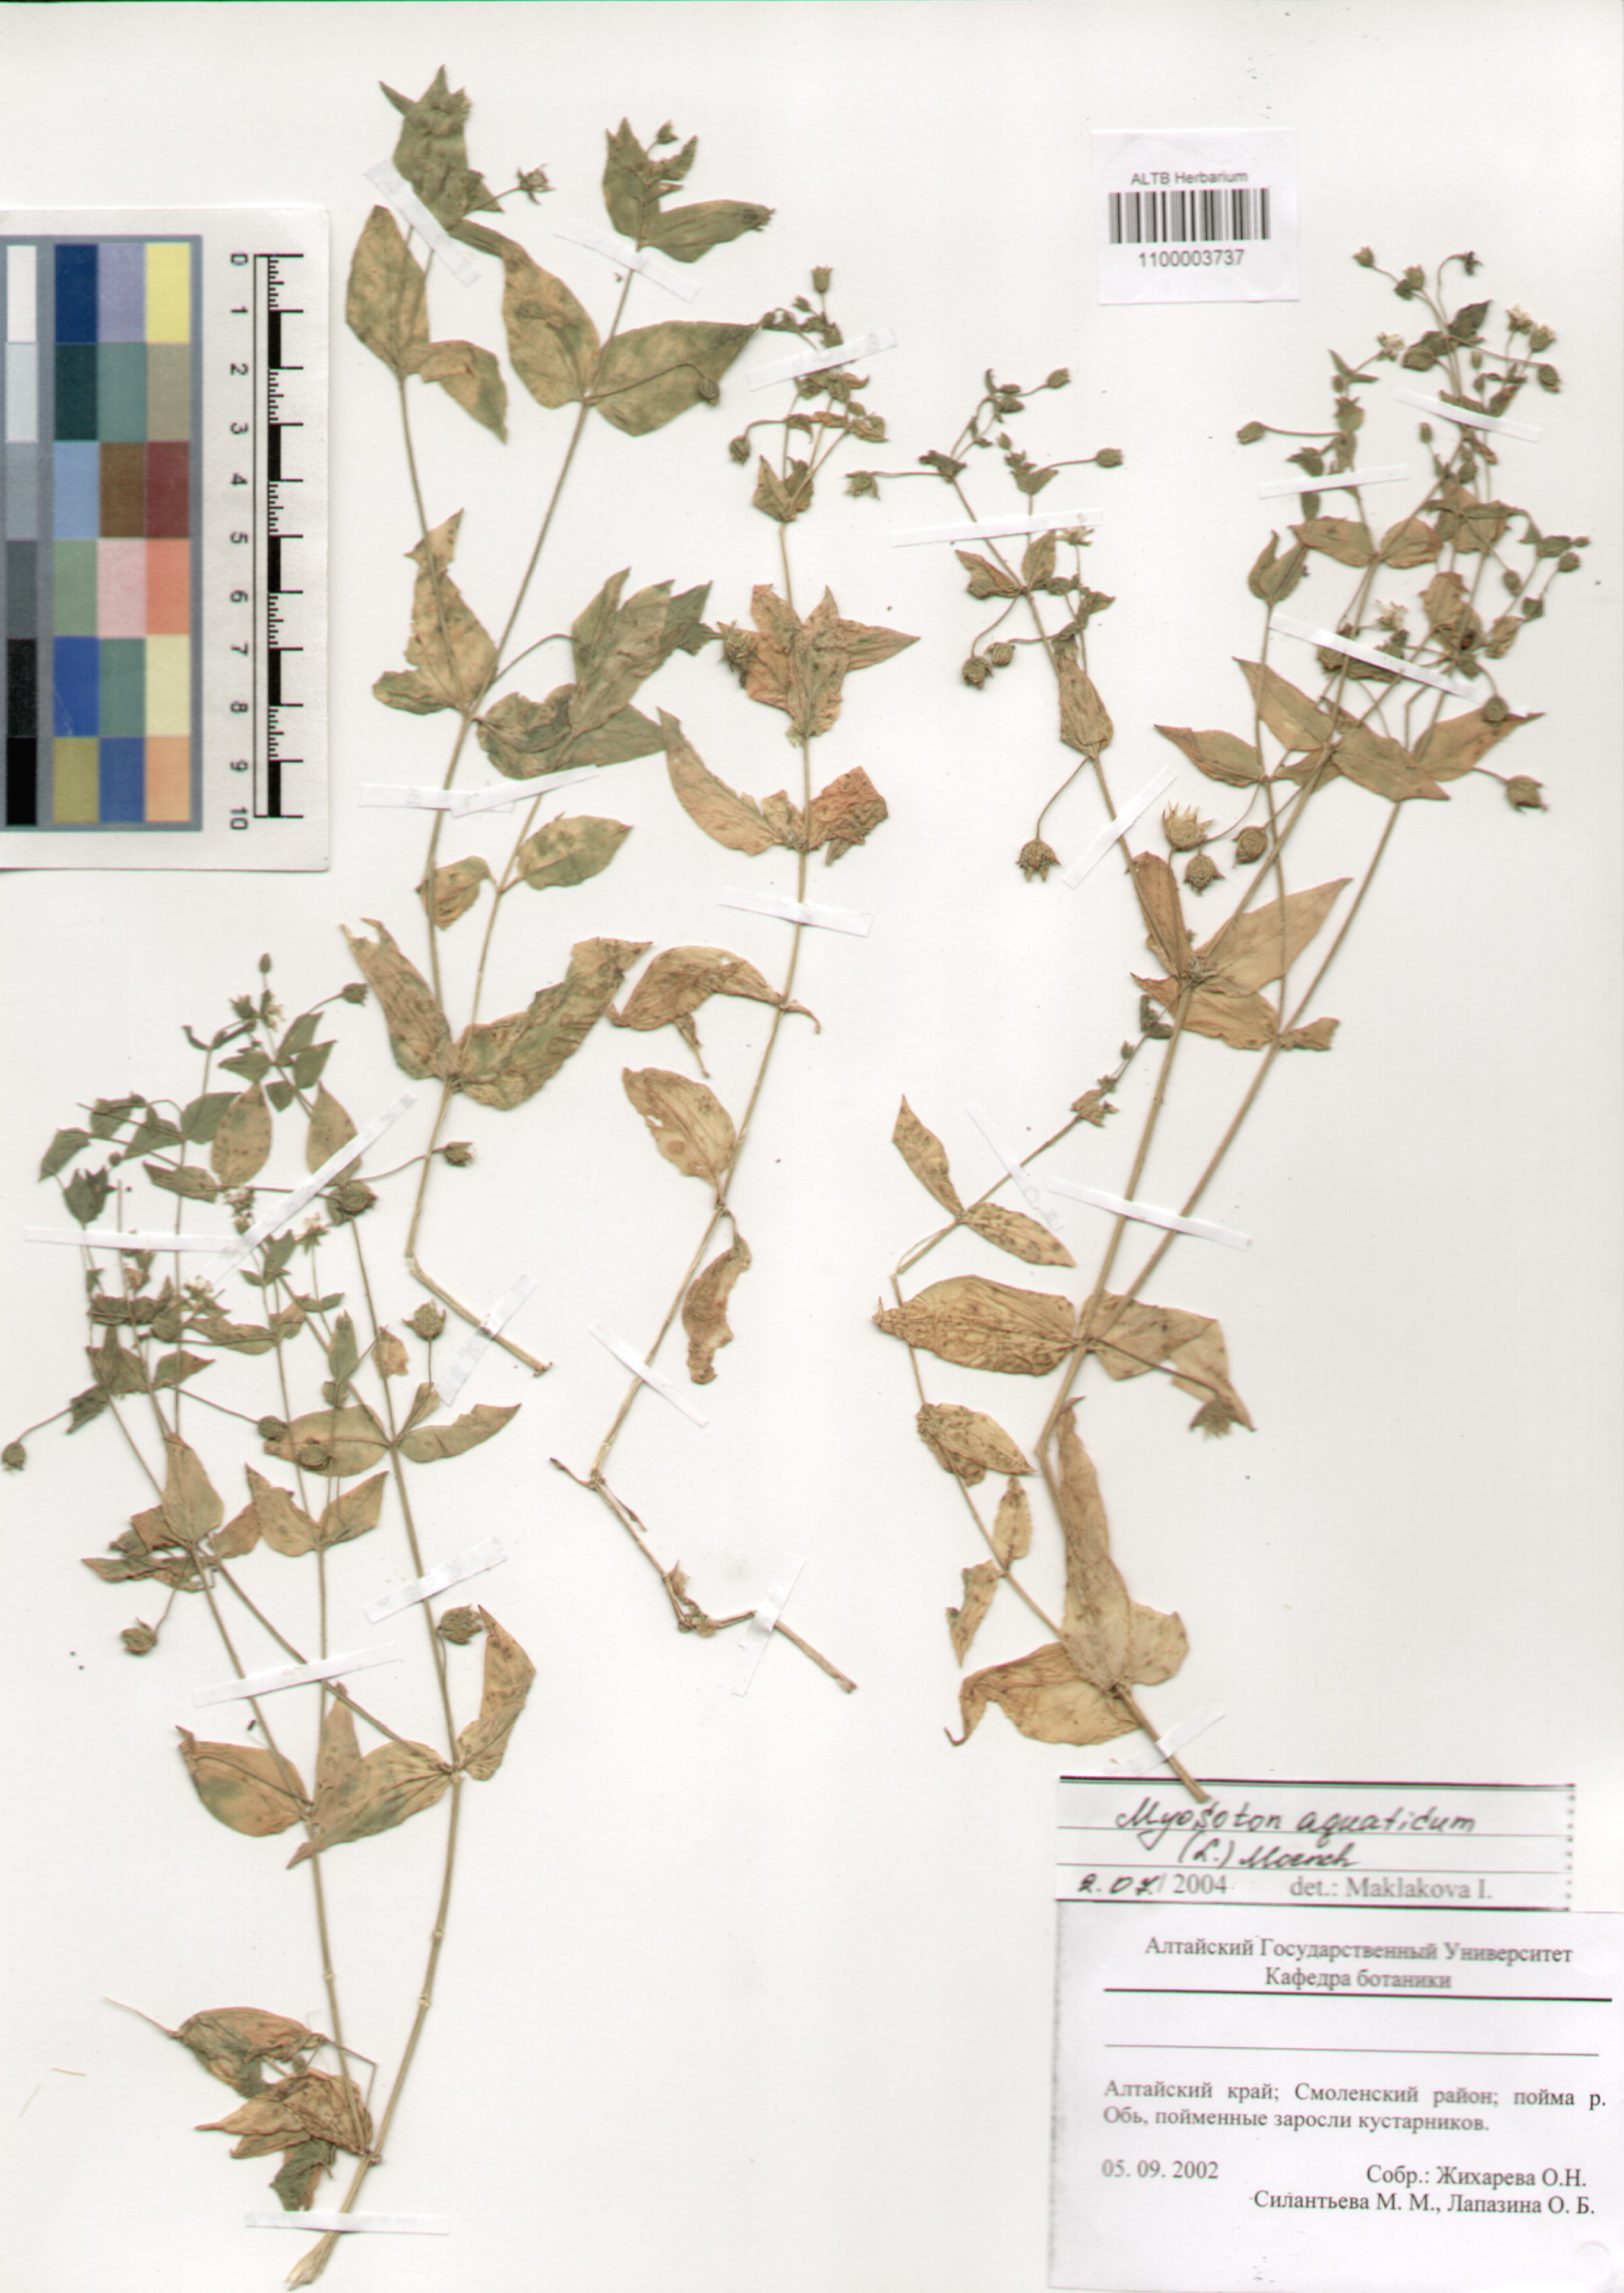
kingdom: Plantae
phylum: Tracheophyta
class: Magnoliopsida
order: Caryophyllales
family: Caryophyllaceae
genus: Stellaria
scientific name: Stellaria aquatica
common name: Water chickweed
